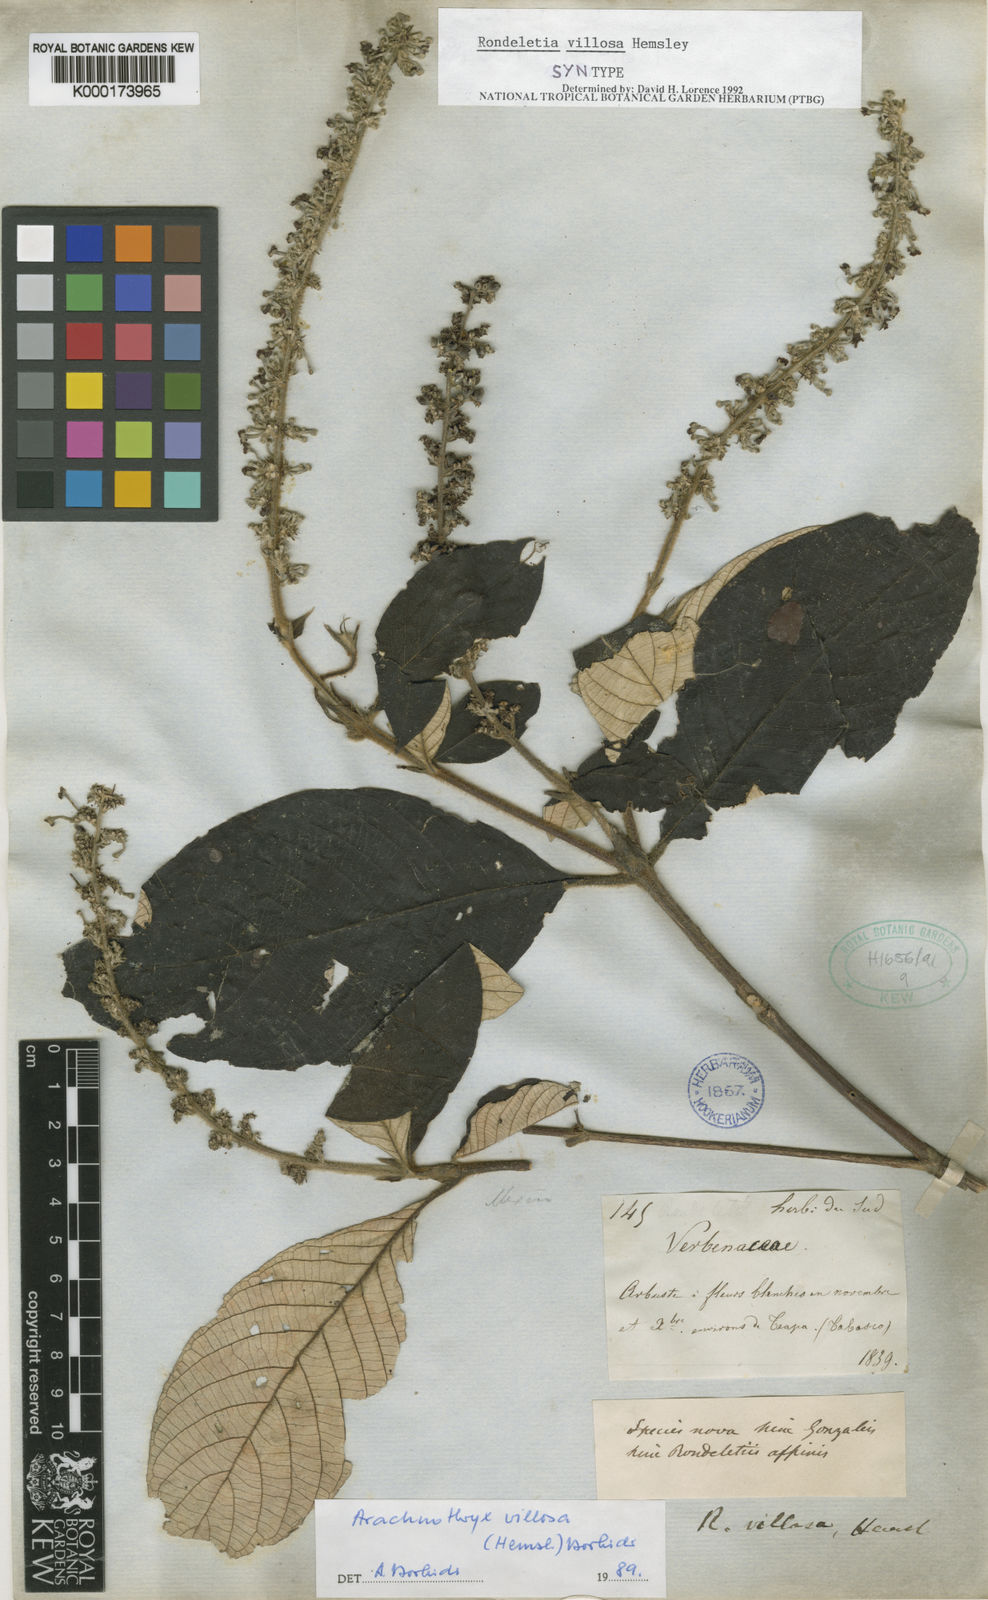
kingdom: Plantae
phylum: Tracheophyta
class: Magnoliopsida
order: Gentianales
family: Rubiaceae
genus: Arachnothryx
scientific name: Arachnothryx villosa
